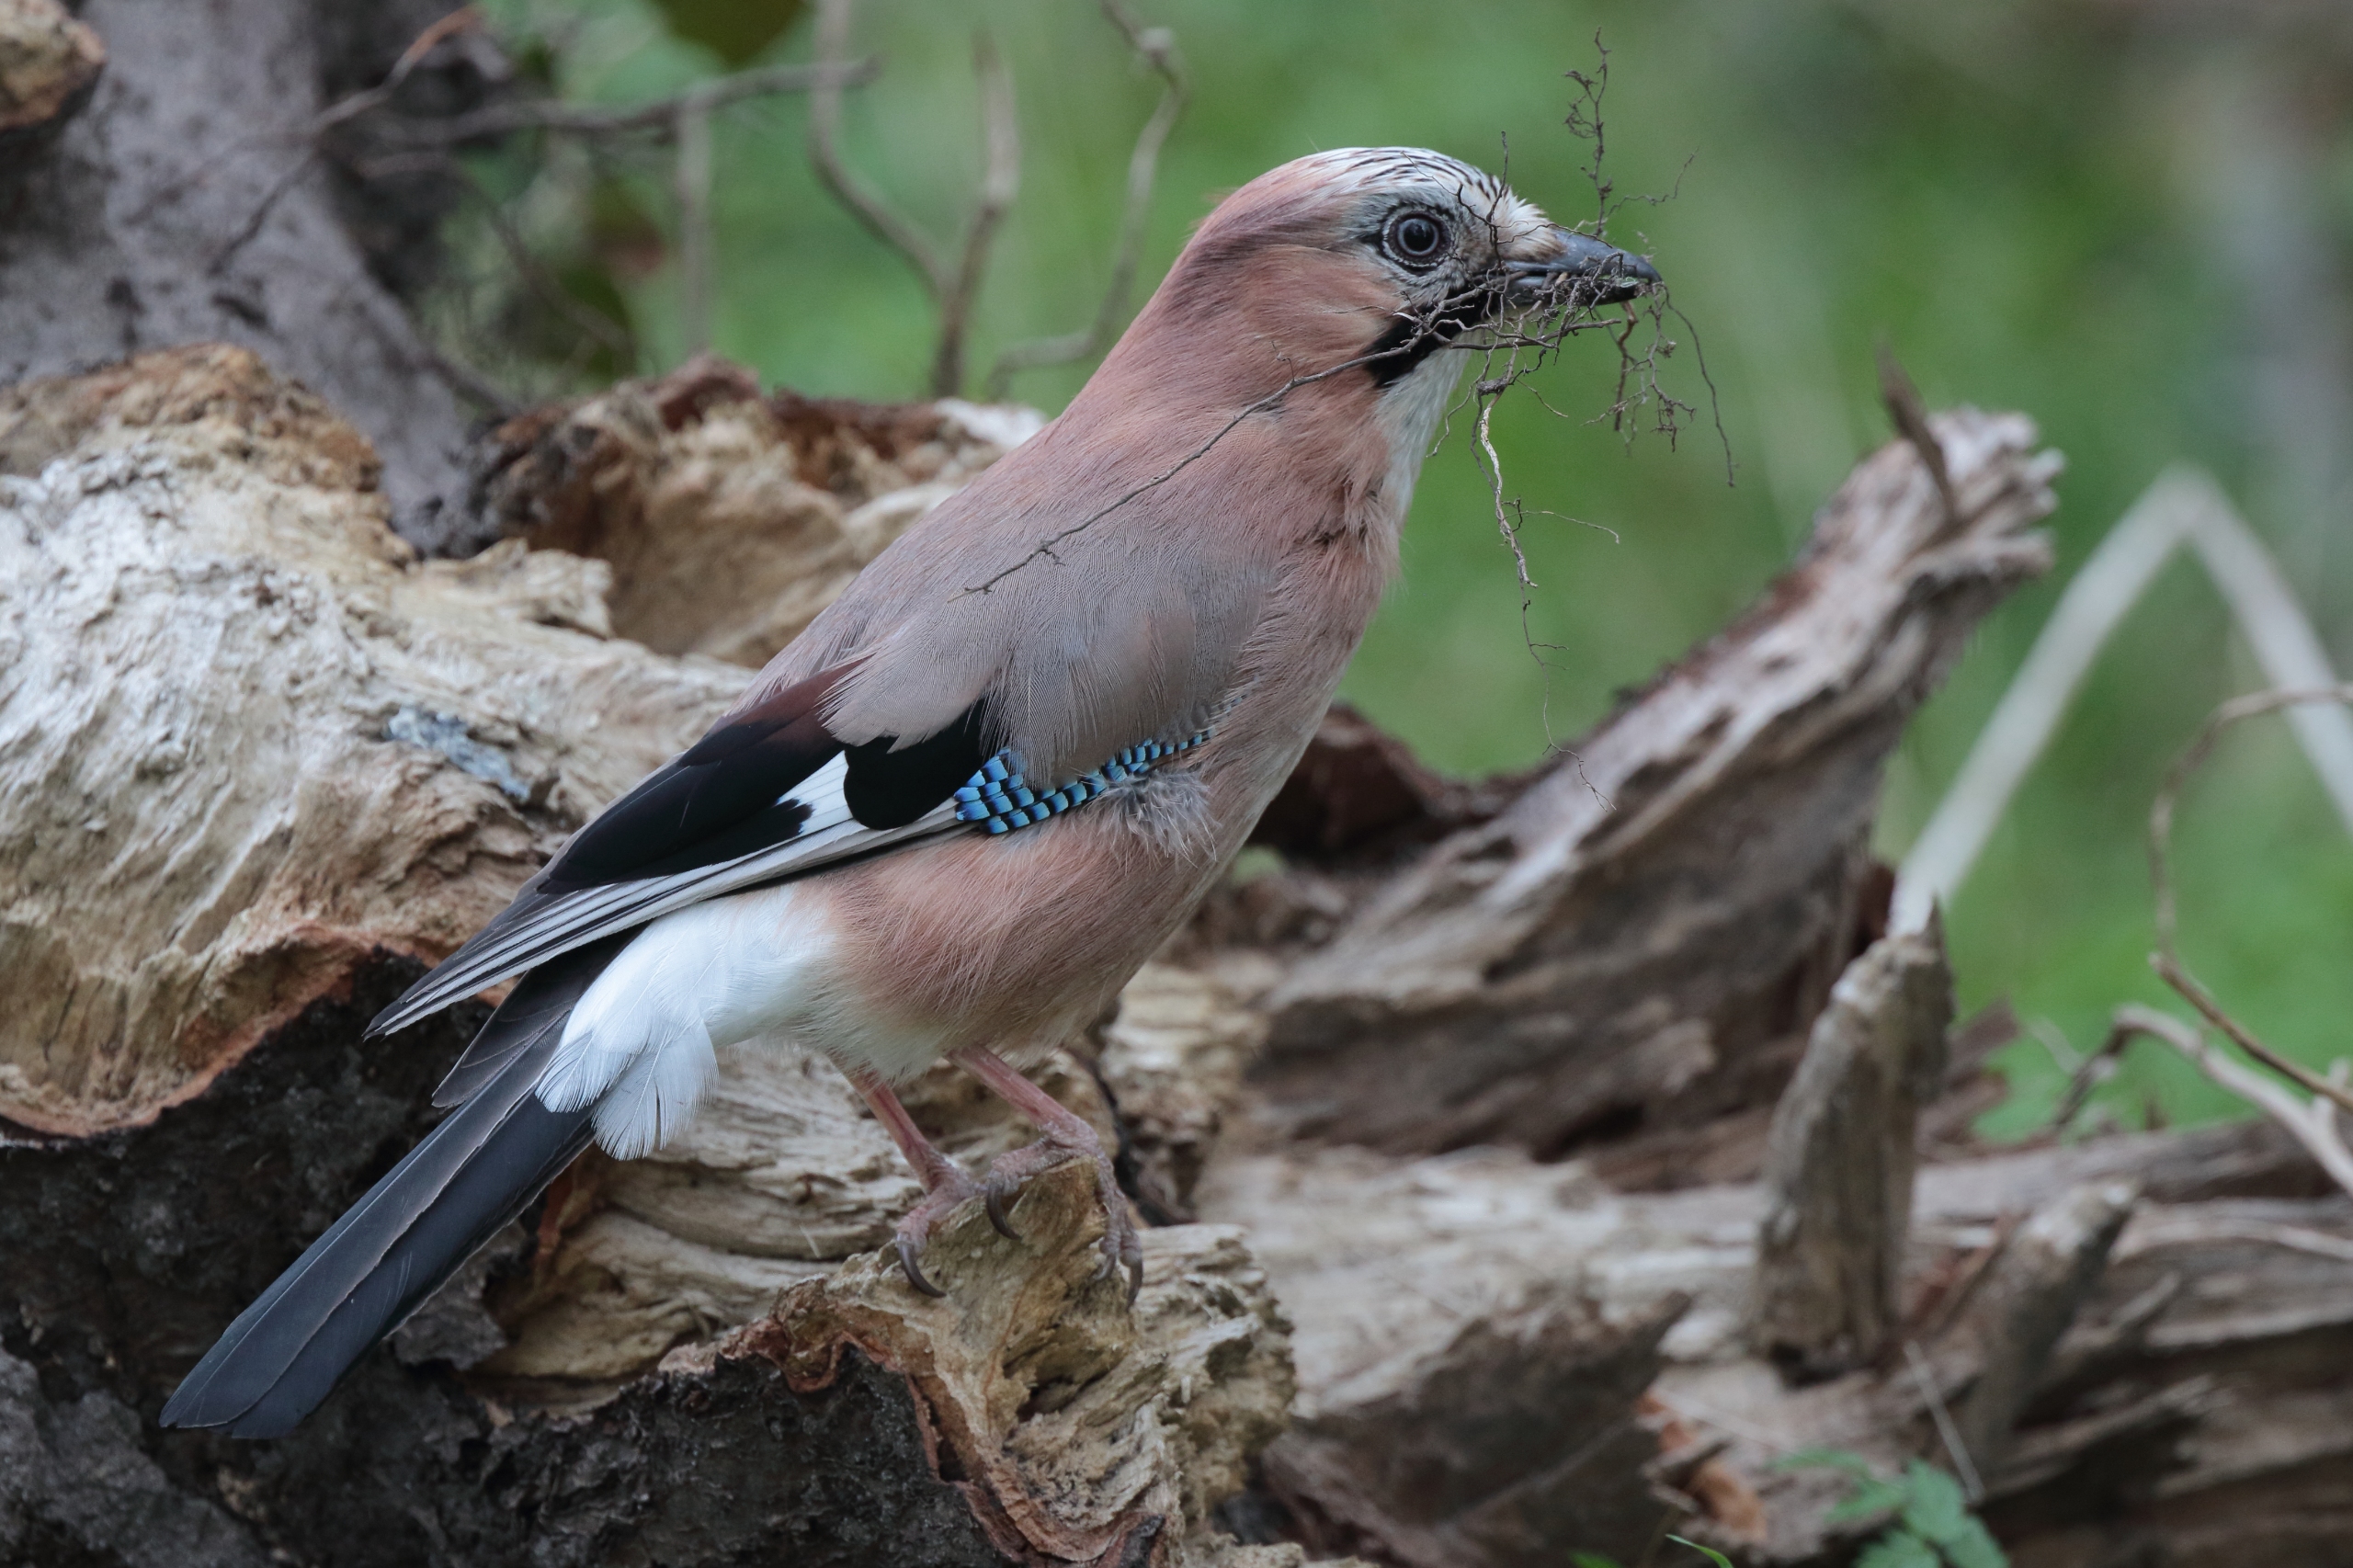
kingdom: Animalia
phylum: Chordata
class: Aves
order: Passeriformes
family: Corvidae
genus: Garrulus
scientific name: Garrulus glandarius
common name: Skovskade
